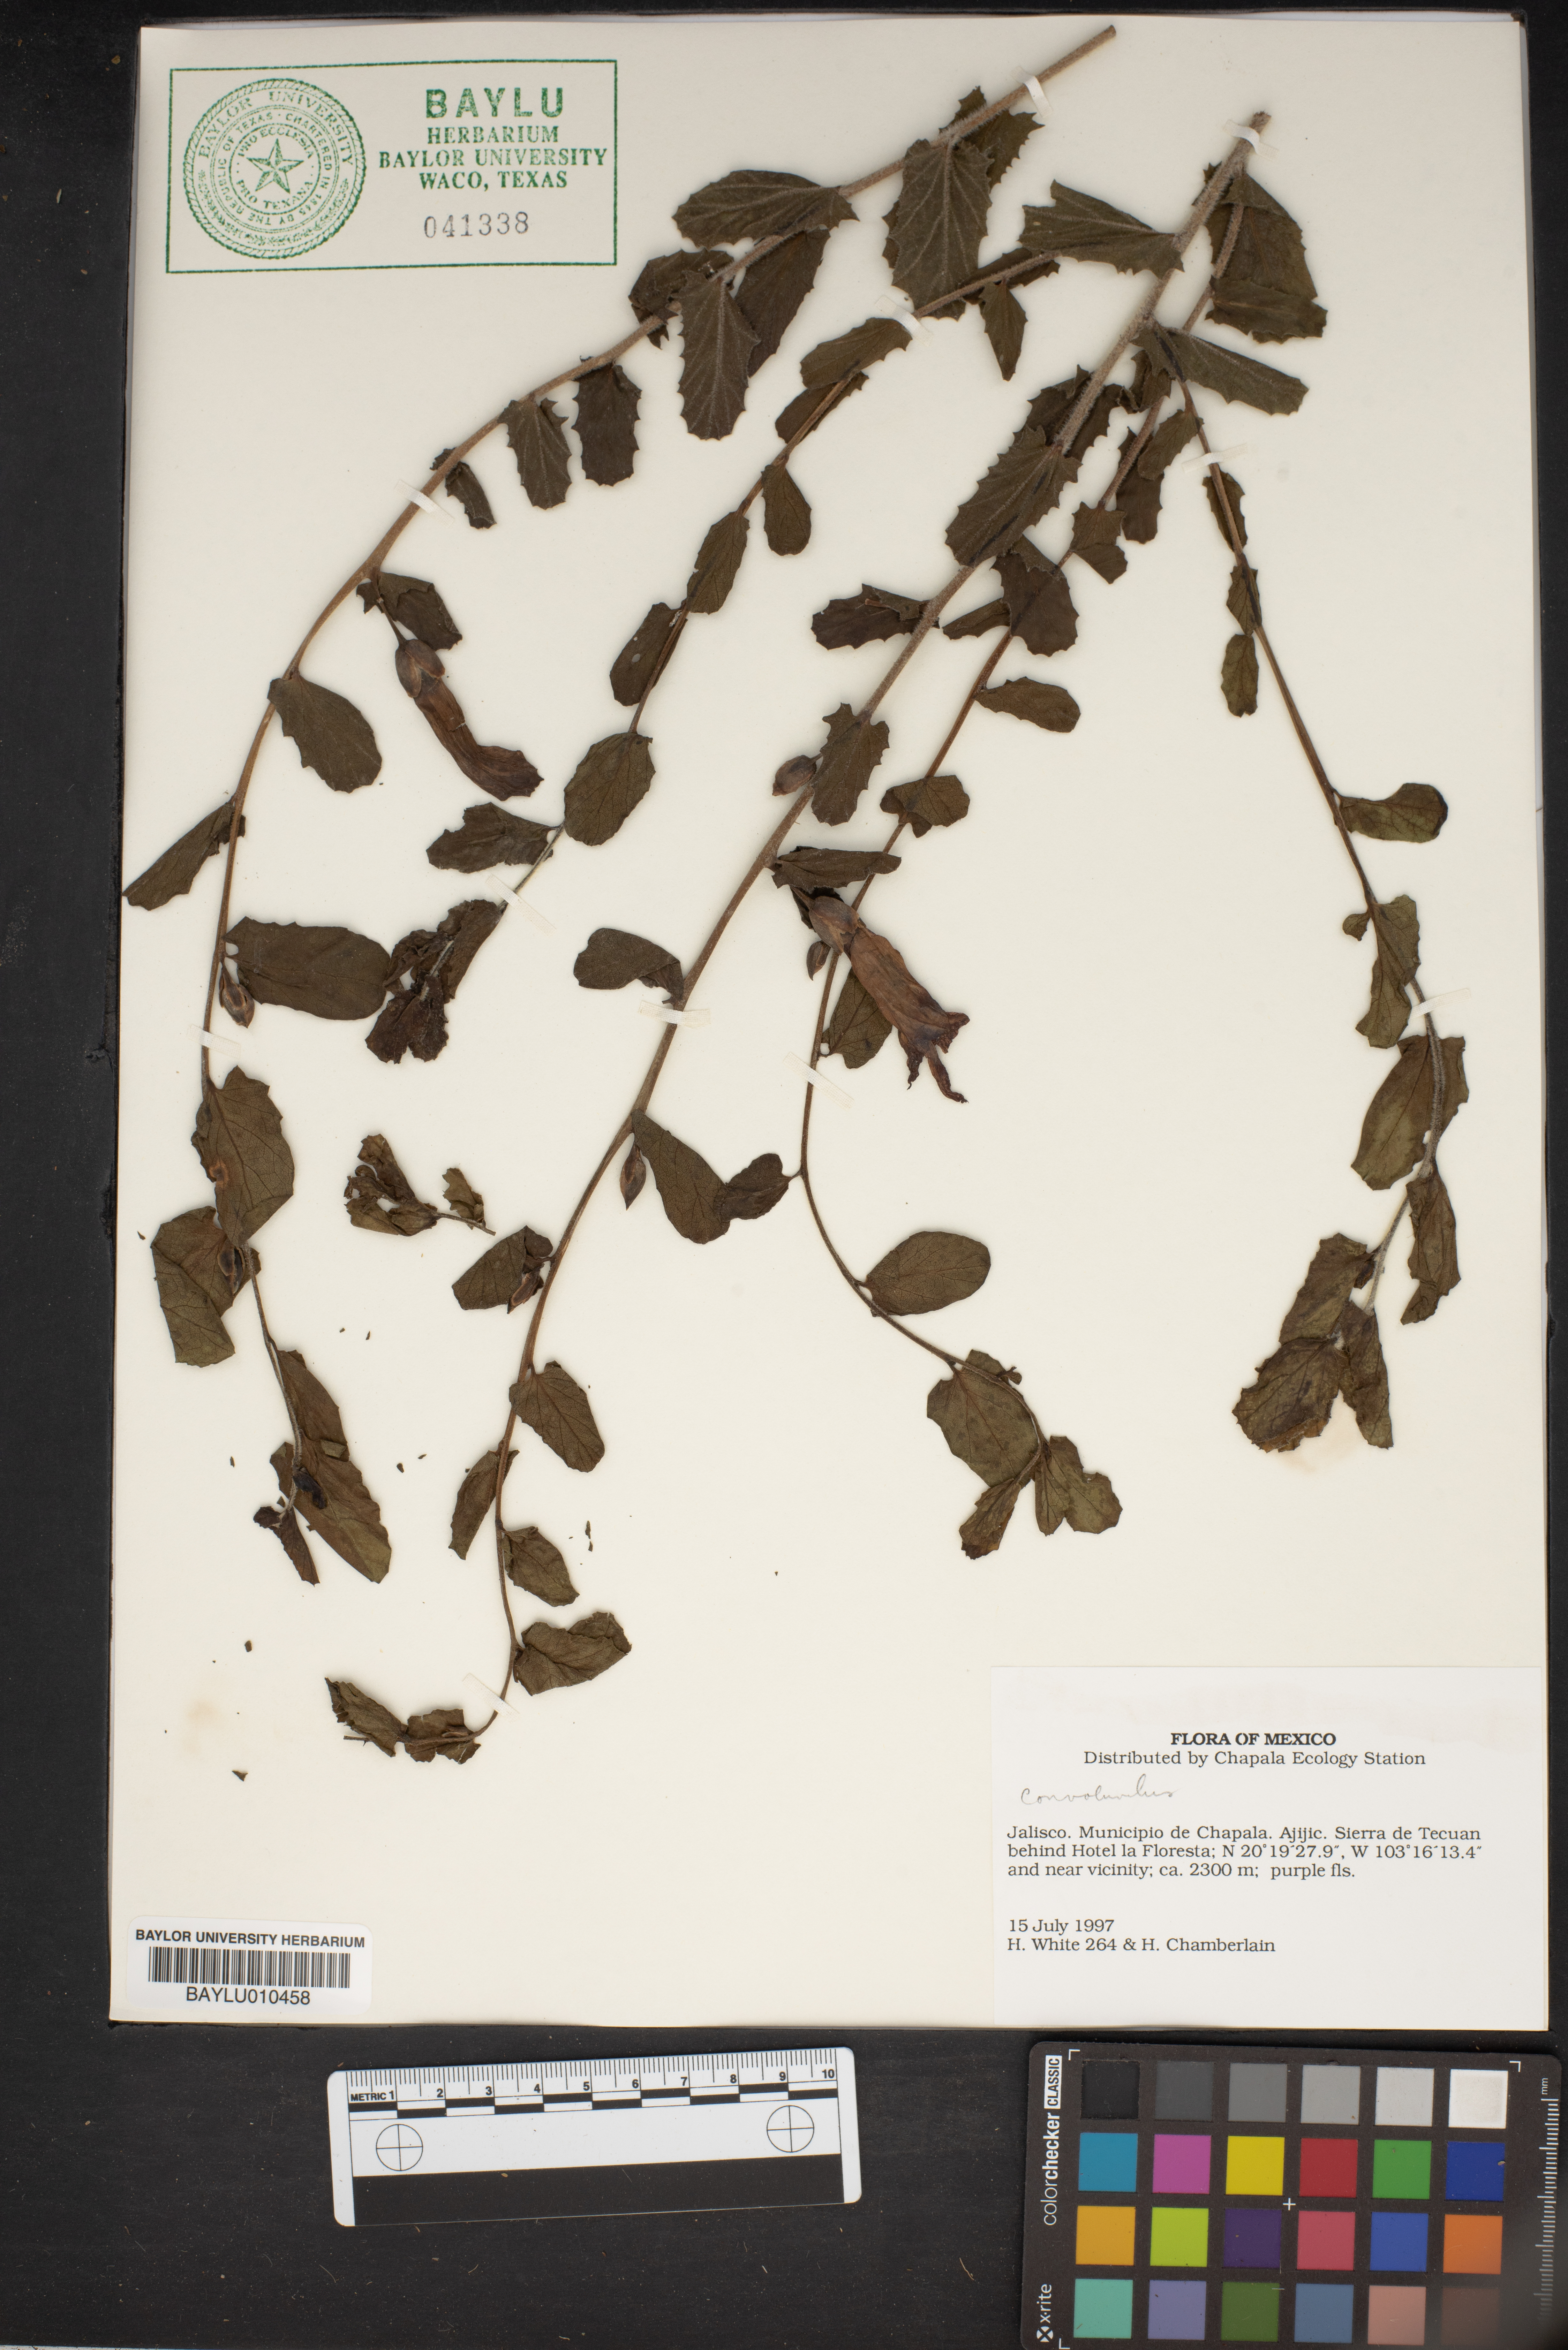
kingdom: Plantae
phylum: Tracheophyta
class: Magnoliopsida
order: Solanales
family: Convolvulaceae
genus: Convolvulus
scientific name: Convolvulus
